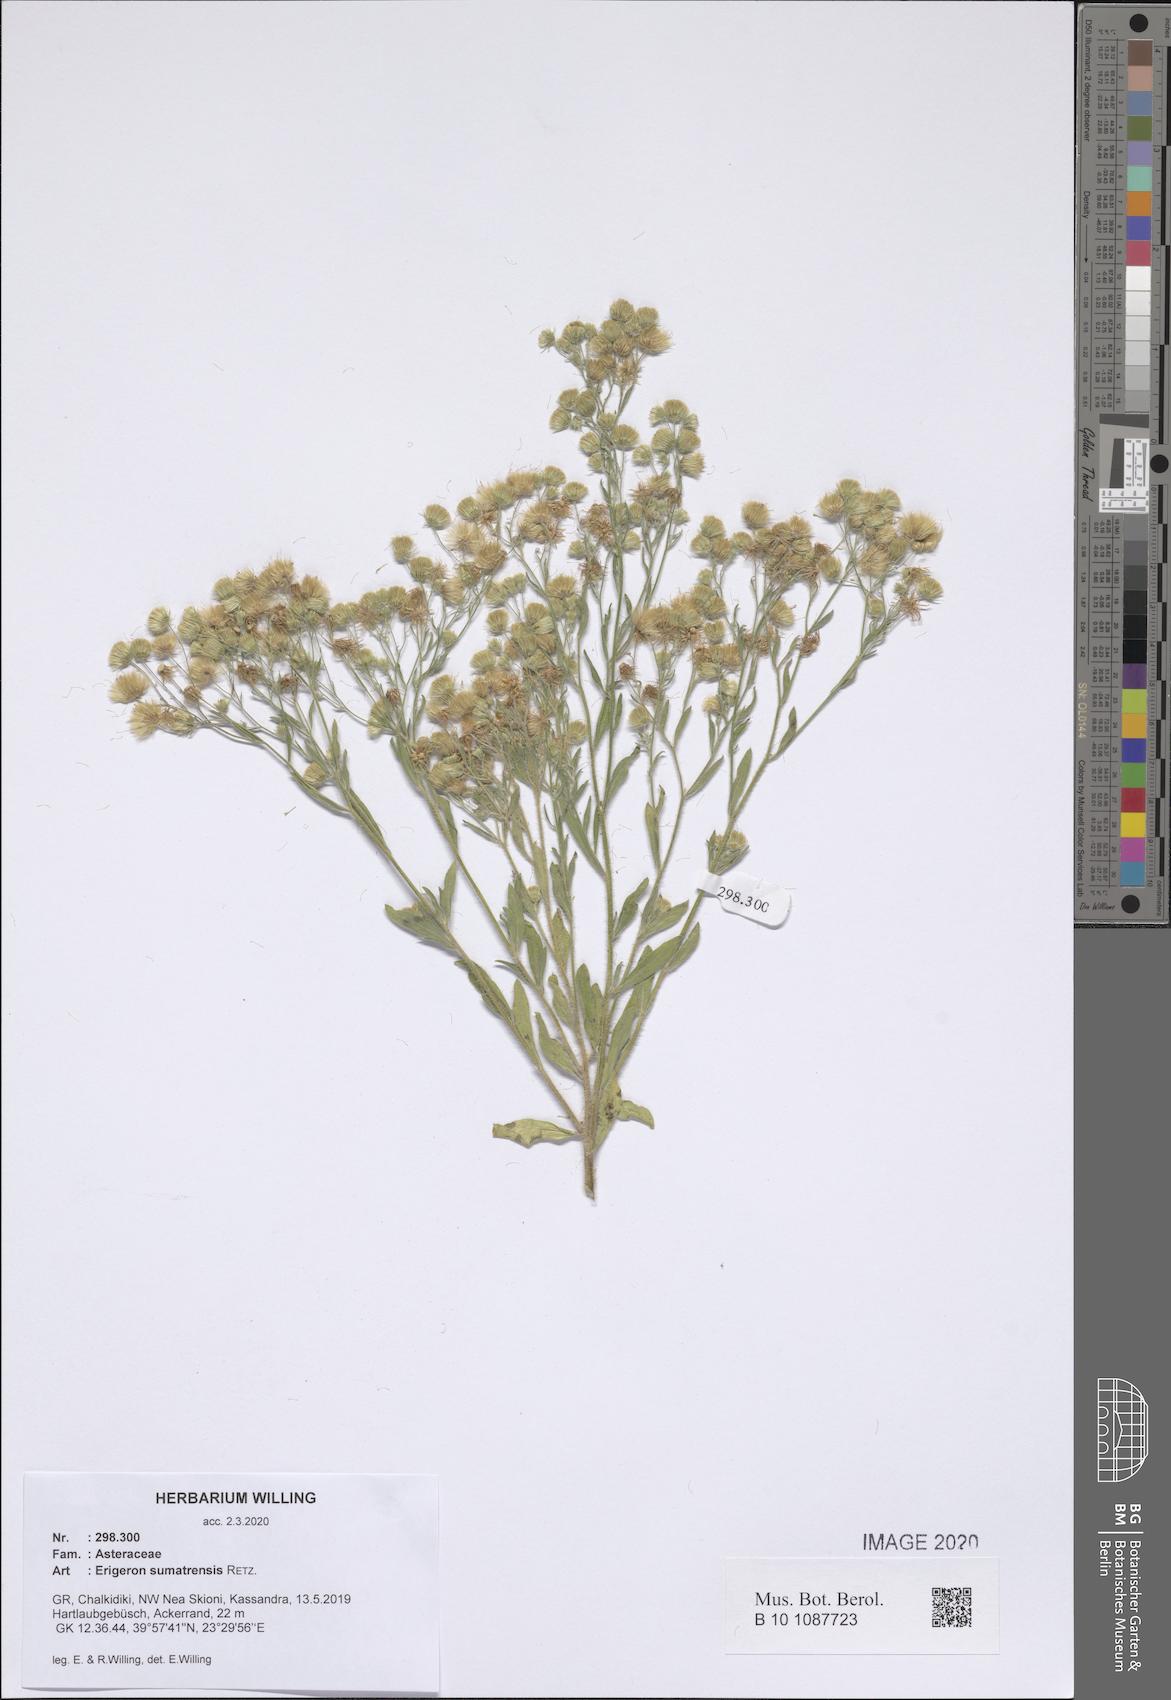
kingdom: Plantae
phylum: Tracheophyta
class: Magnoliopsida
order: Asterales
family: Asteraceae
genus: Erigeron
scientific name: Erigeron sumatrensis
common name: Daisy
